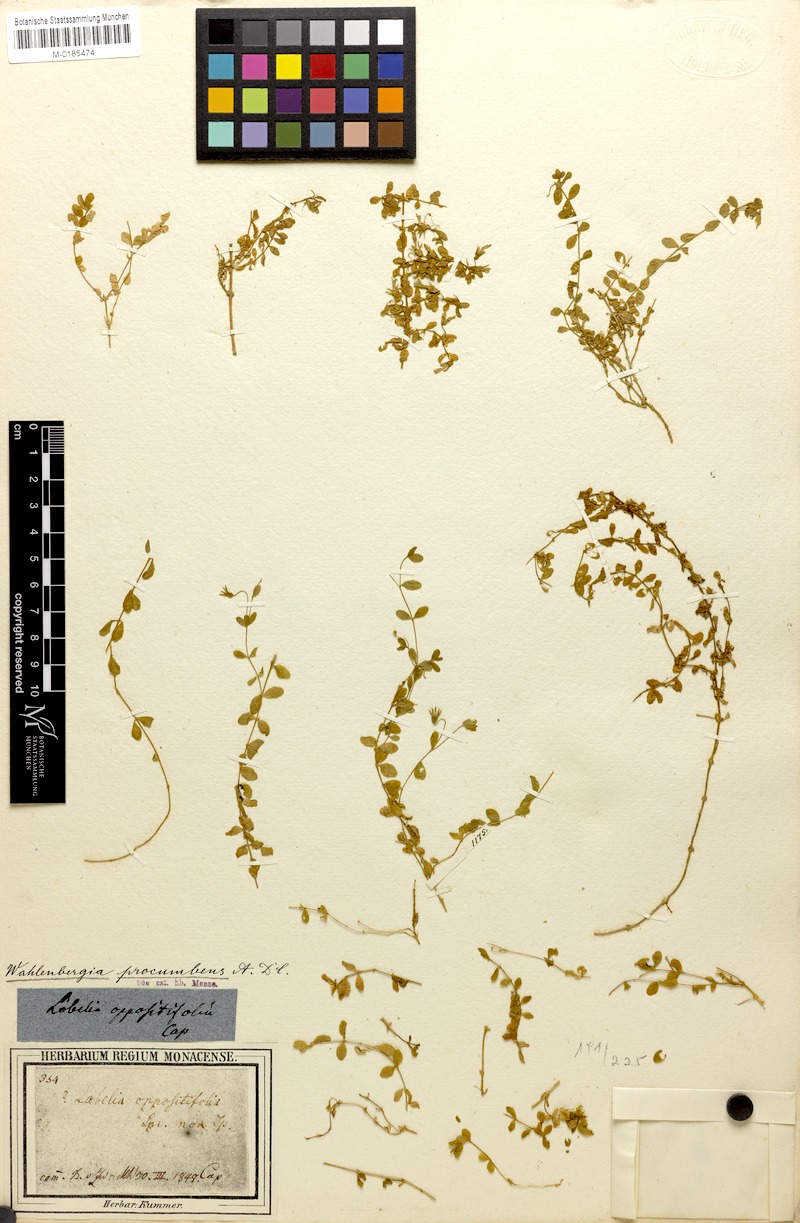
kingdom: Plantae
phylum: Tracheophyta
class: Magnoliopsida
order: Asterales
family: Campanulaceae
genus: Wahlenbergia
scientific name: Wahlenbergia procumbens
